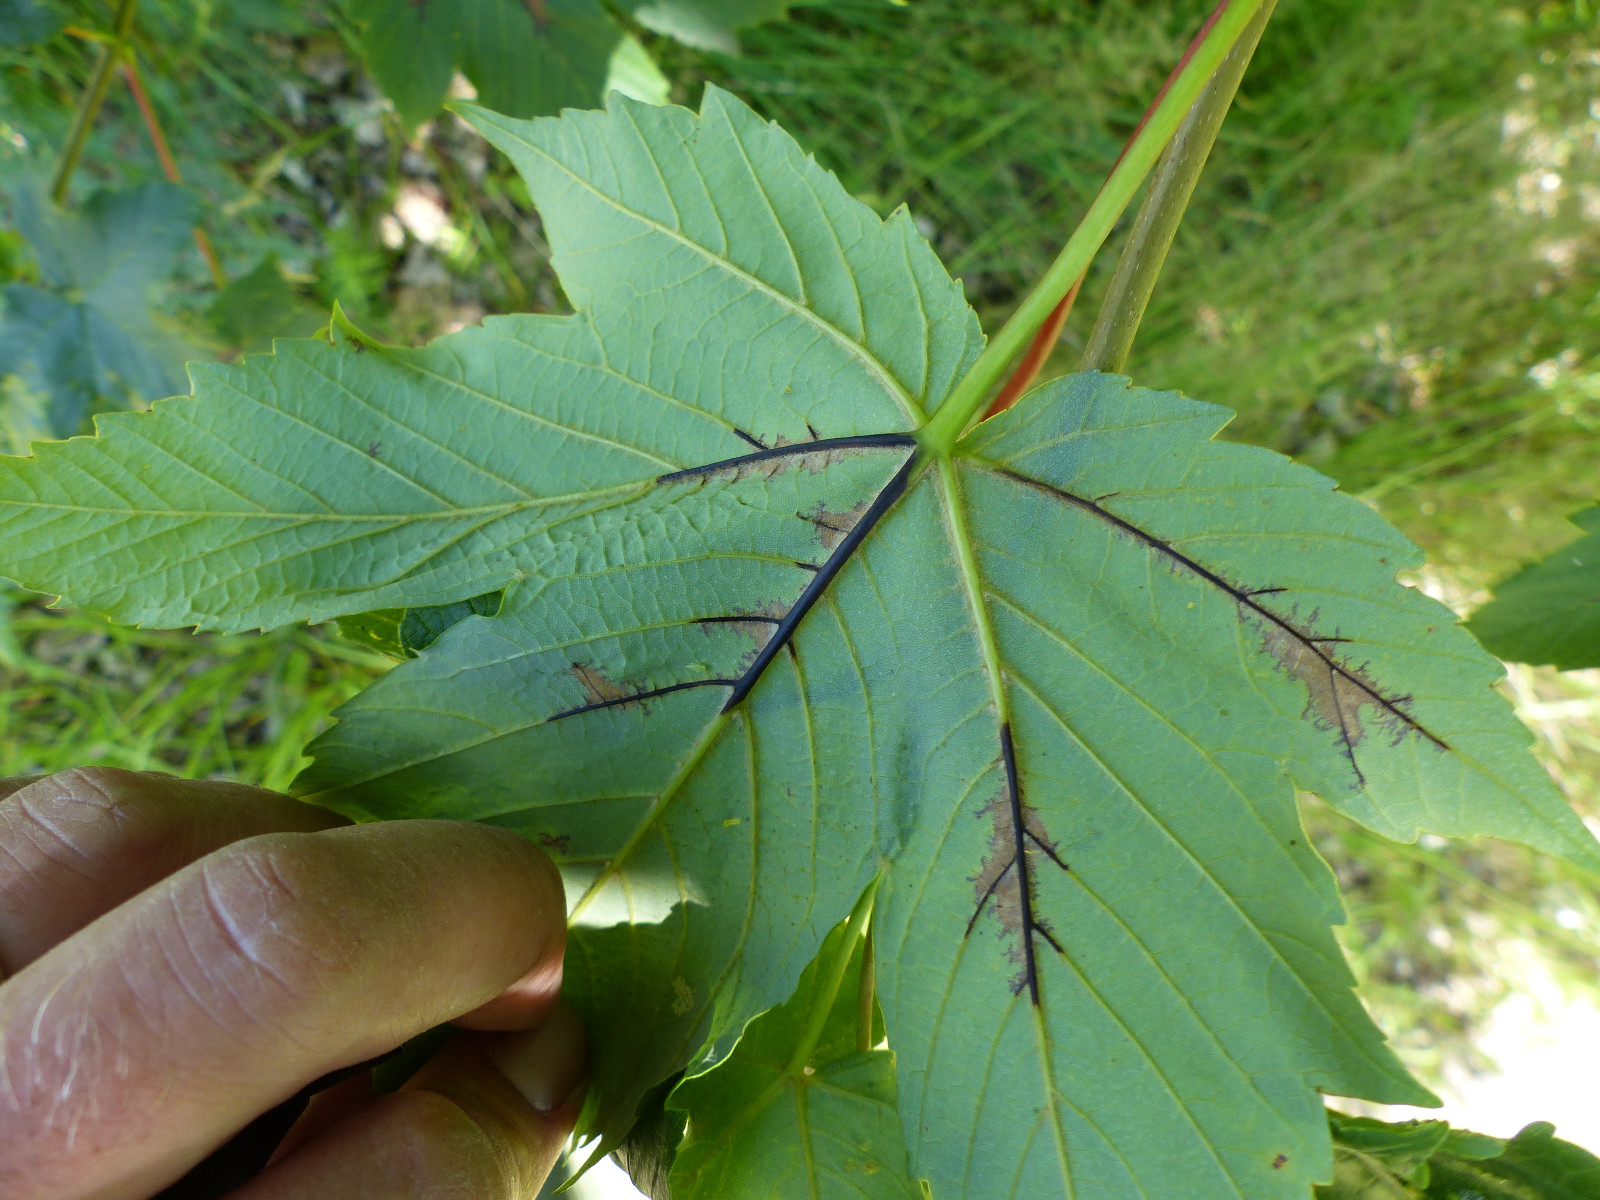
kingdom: Fungi
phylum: Ascomycota
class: Sordariomycetes
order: Diaporthales
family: Gnomoniaceae
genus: Pleuroceras
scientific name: Pleuroceras pseudoplatani
